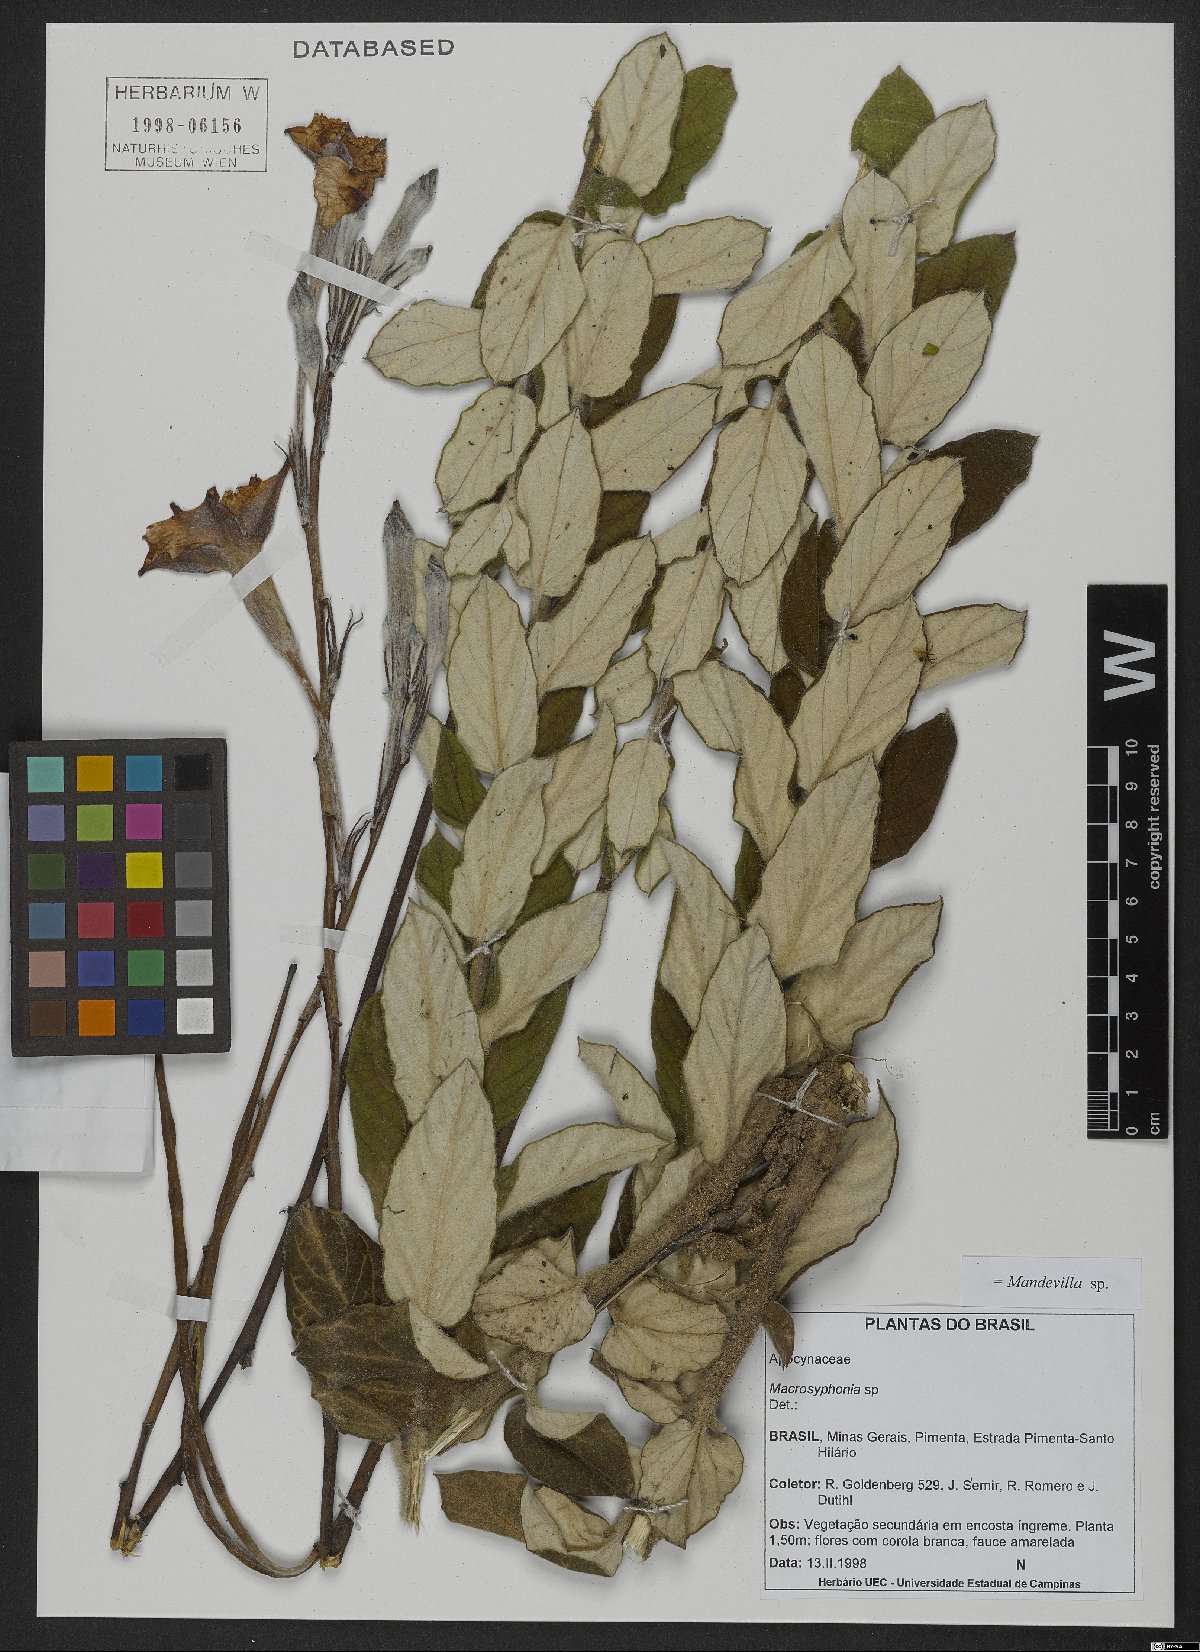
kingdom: Plantae
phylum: Tracheophyta
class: Magnoliopsida
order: Gentianales
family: Apocynaceae
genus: Mandevilla
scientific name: Mandevilla
